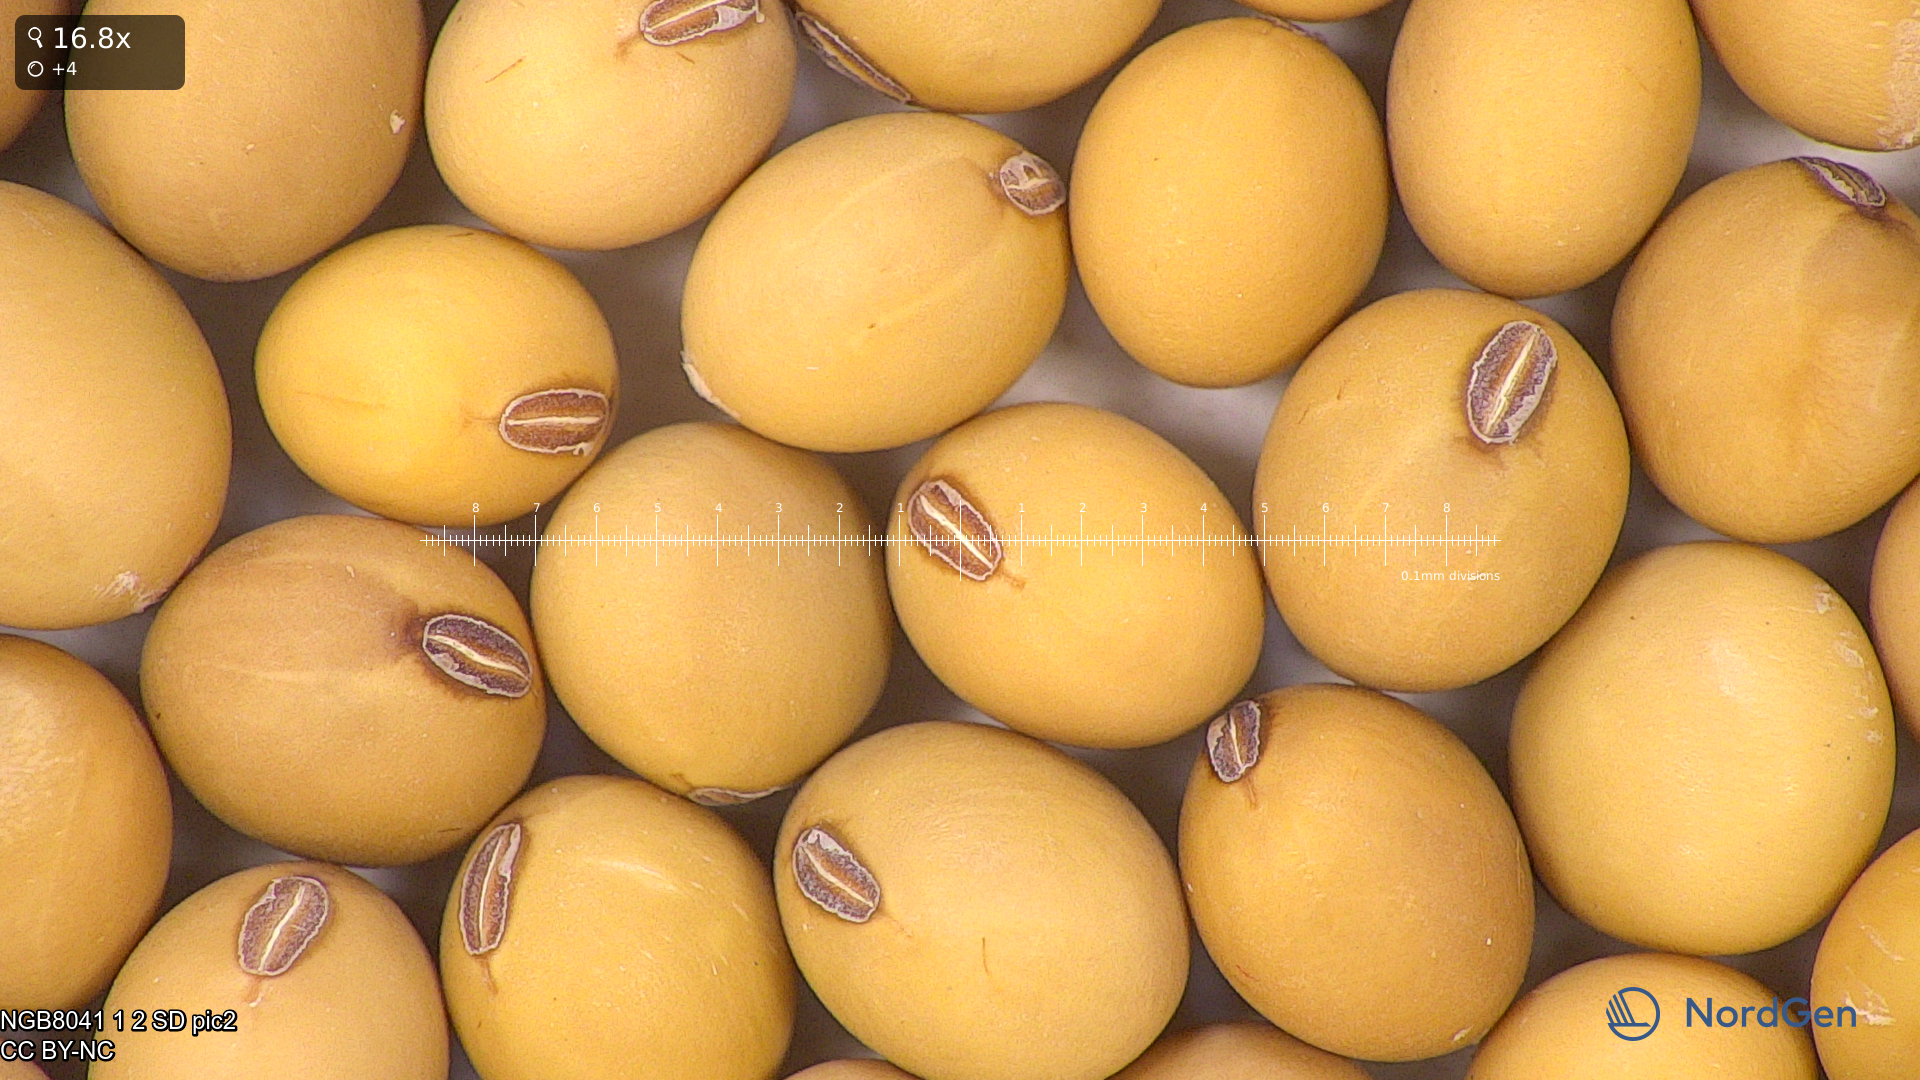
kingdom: Plantae
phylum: Tracheophyta
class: Magnoliopsida
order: Fabales
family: Fabaceae
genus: Glycine
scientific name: Glycine max
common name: Soya-bean
